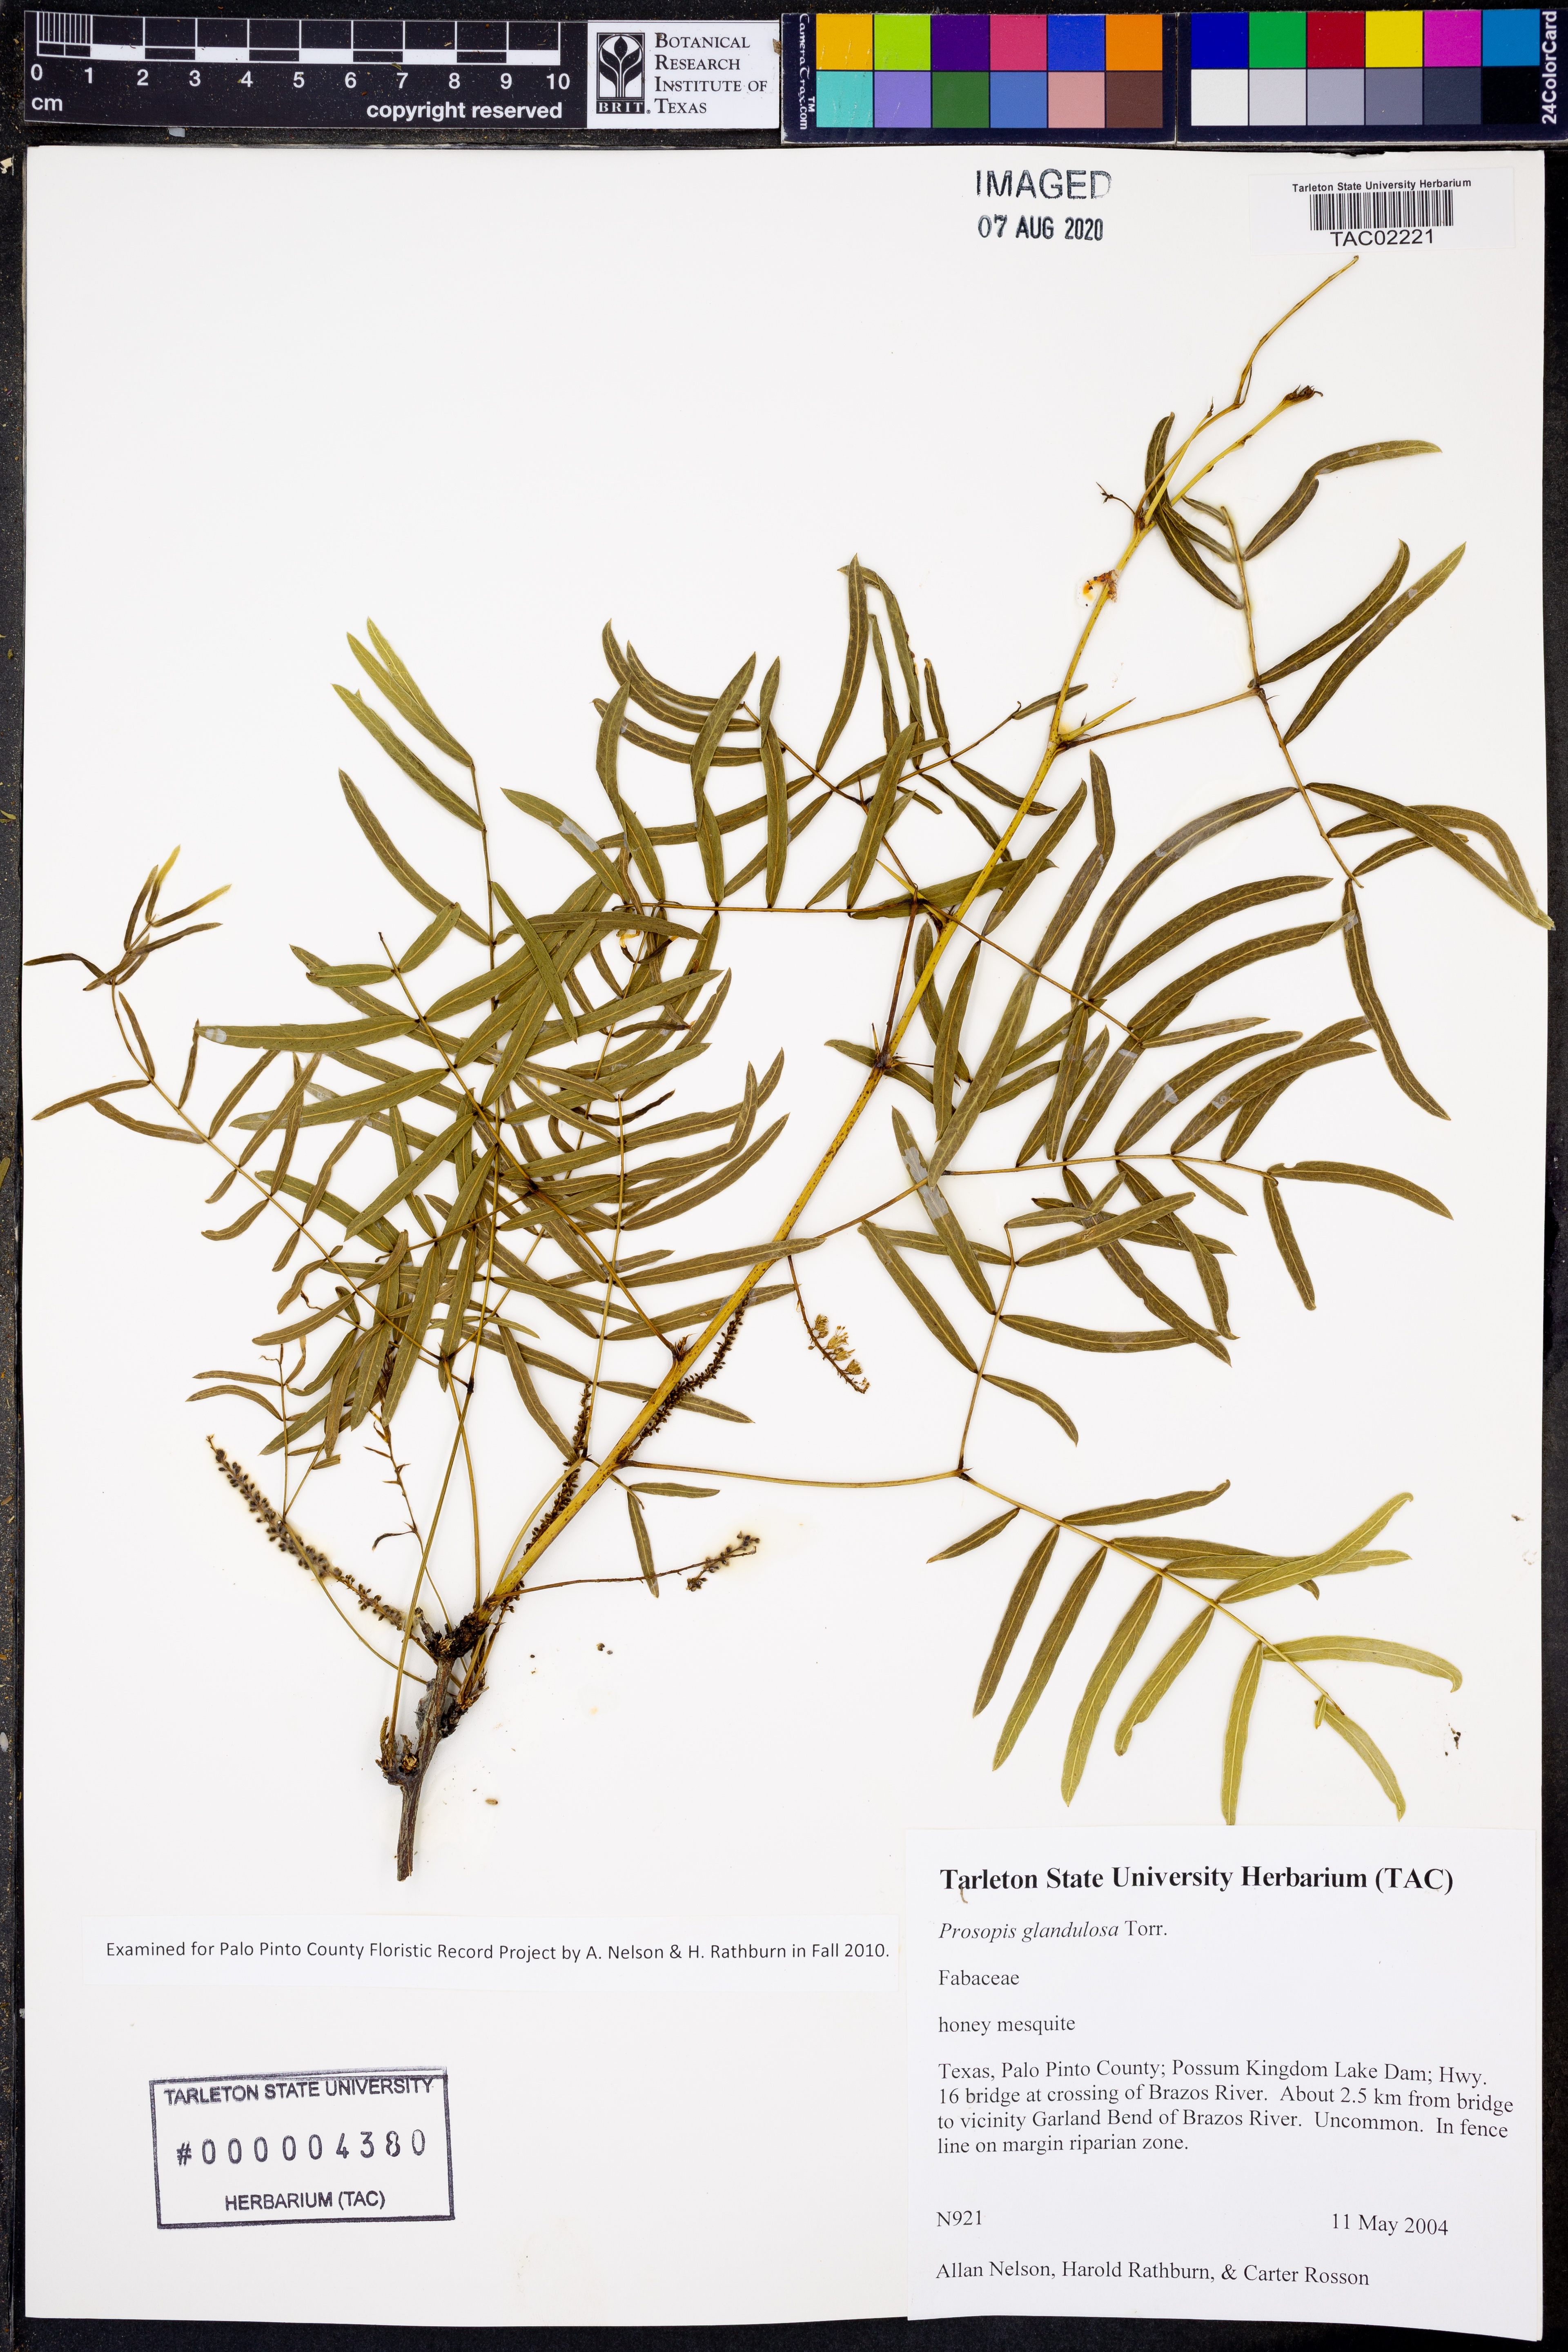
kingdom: Plantae
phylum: Tracheophyta
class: Magnoliopsida
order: Fabales
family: Fabaceae
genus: Prosopis
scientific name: Prosopis glandulosa
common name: Honey mesquite
